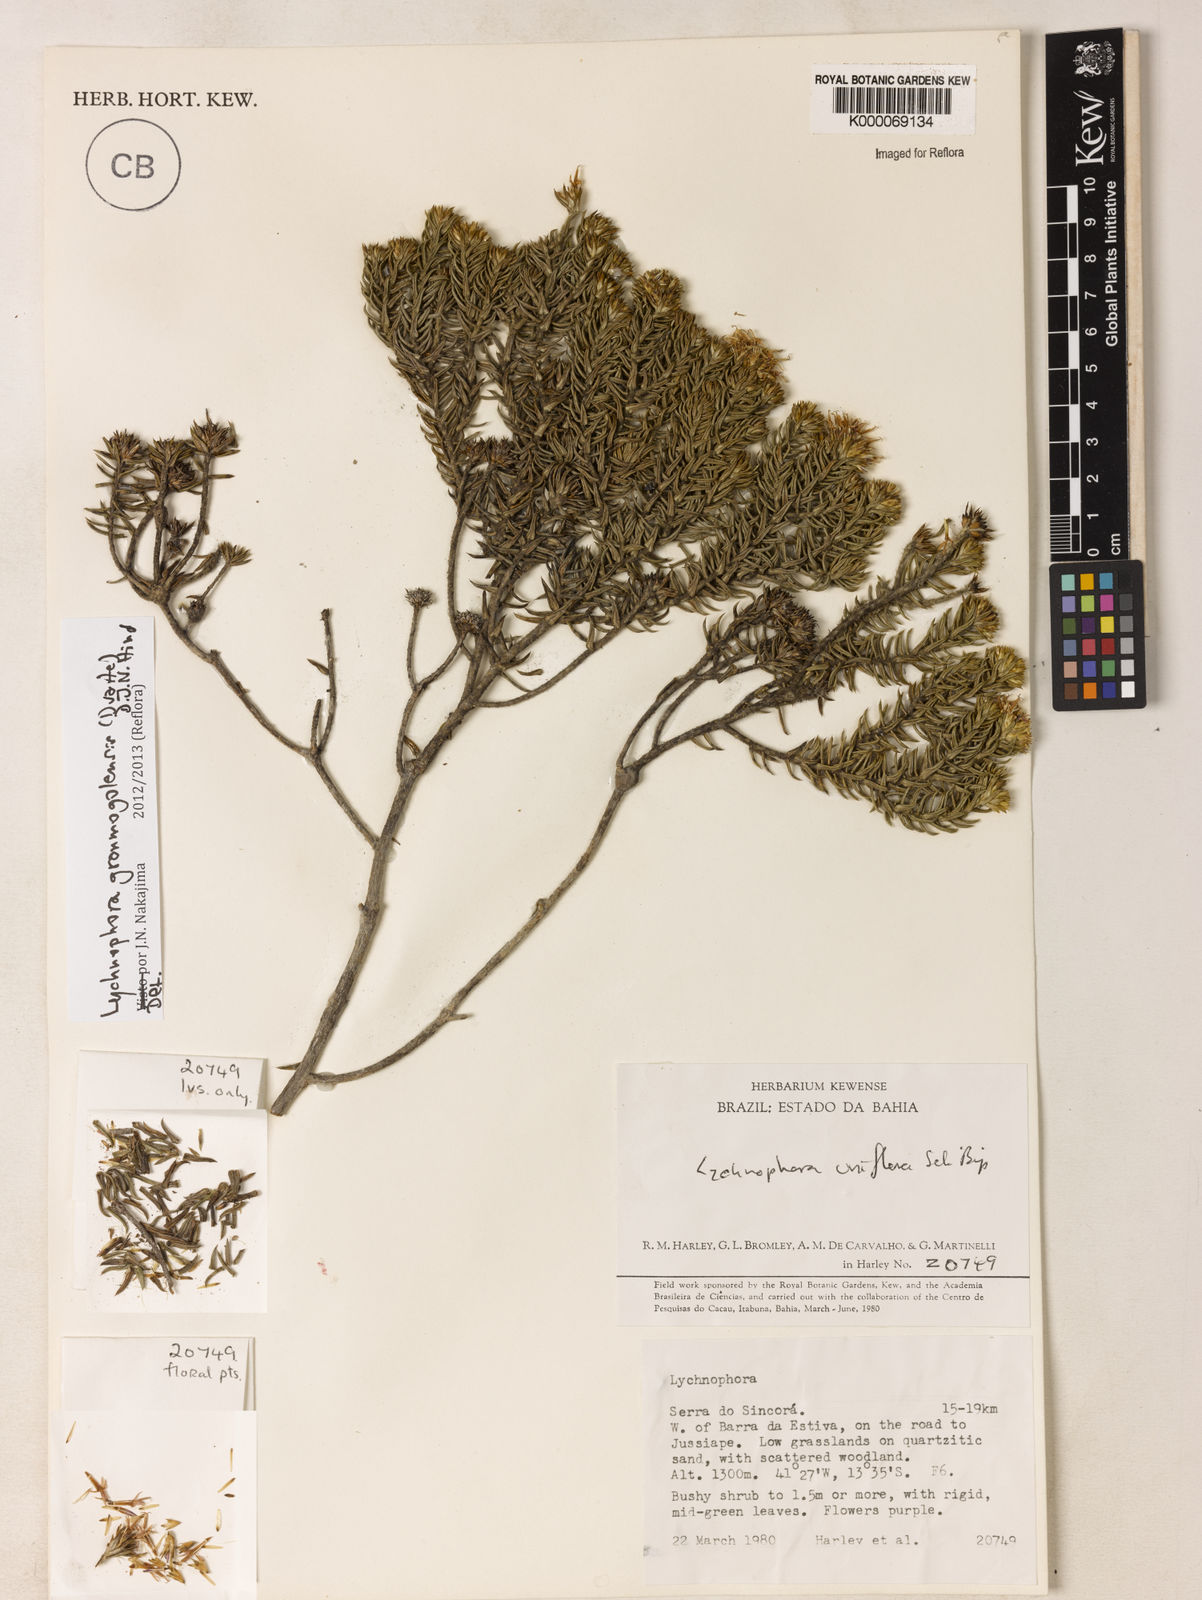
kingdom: Plantae
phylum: Tracheophyta
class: Magnoliopsida
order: Asterales
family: Asteraceae
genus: Lychnophora
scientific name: Lychnophora uniflora
